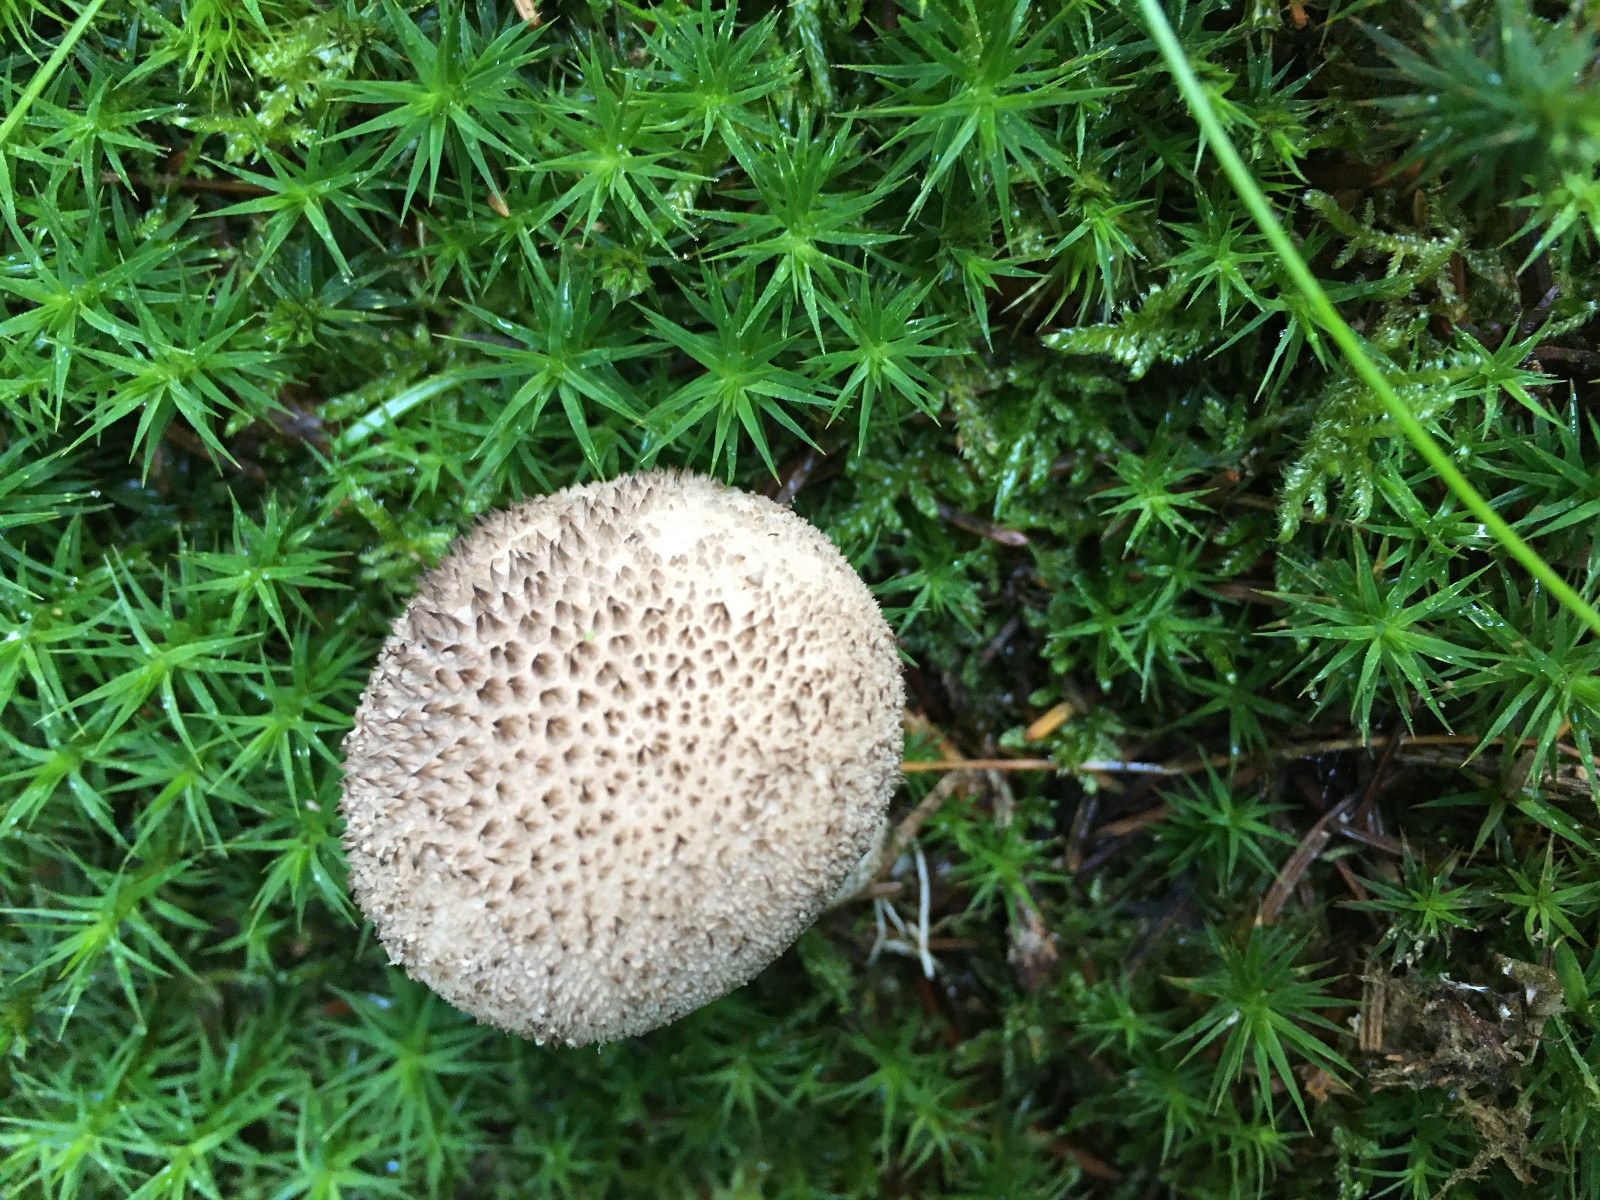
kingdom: Fungi
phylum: Basidiomycota
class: Agaricomycetes
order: Agaricales
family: Lycoperdaceae
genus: Lycoperdon
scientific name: Lycoperdon nigrescens
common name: sortagtig støvbold
